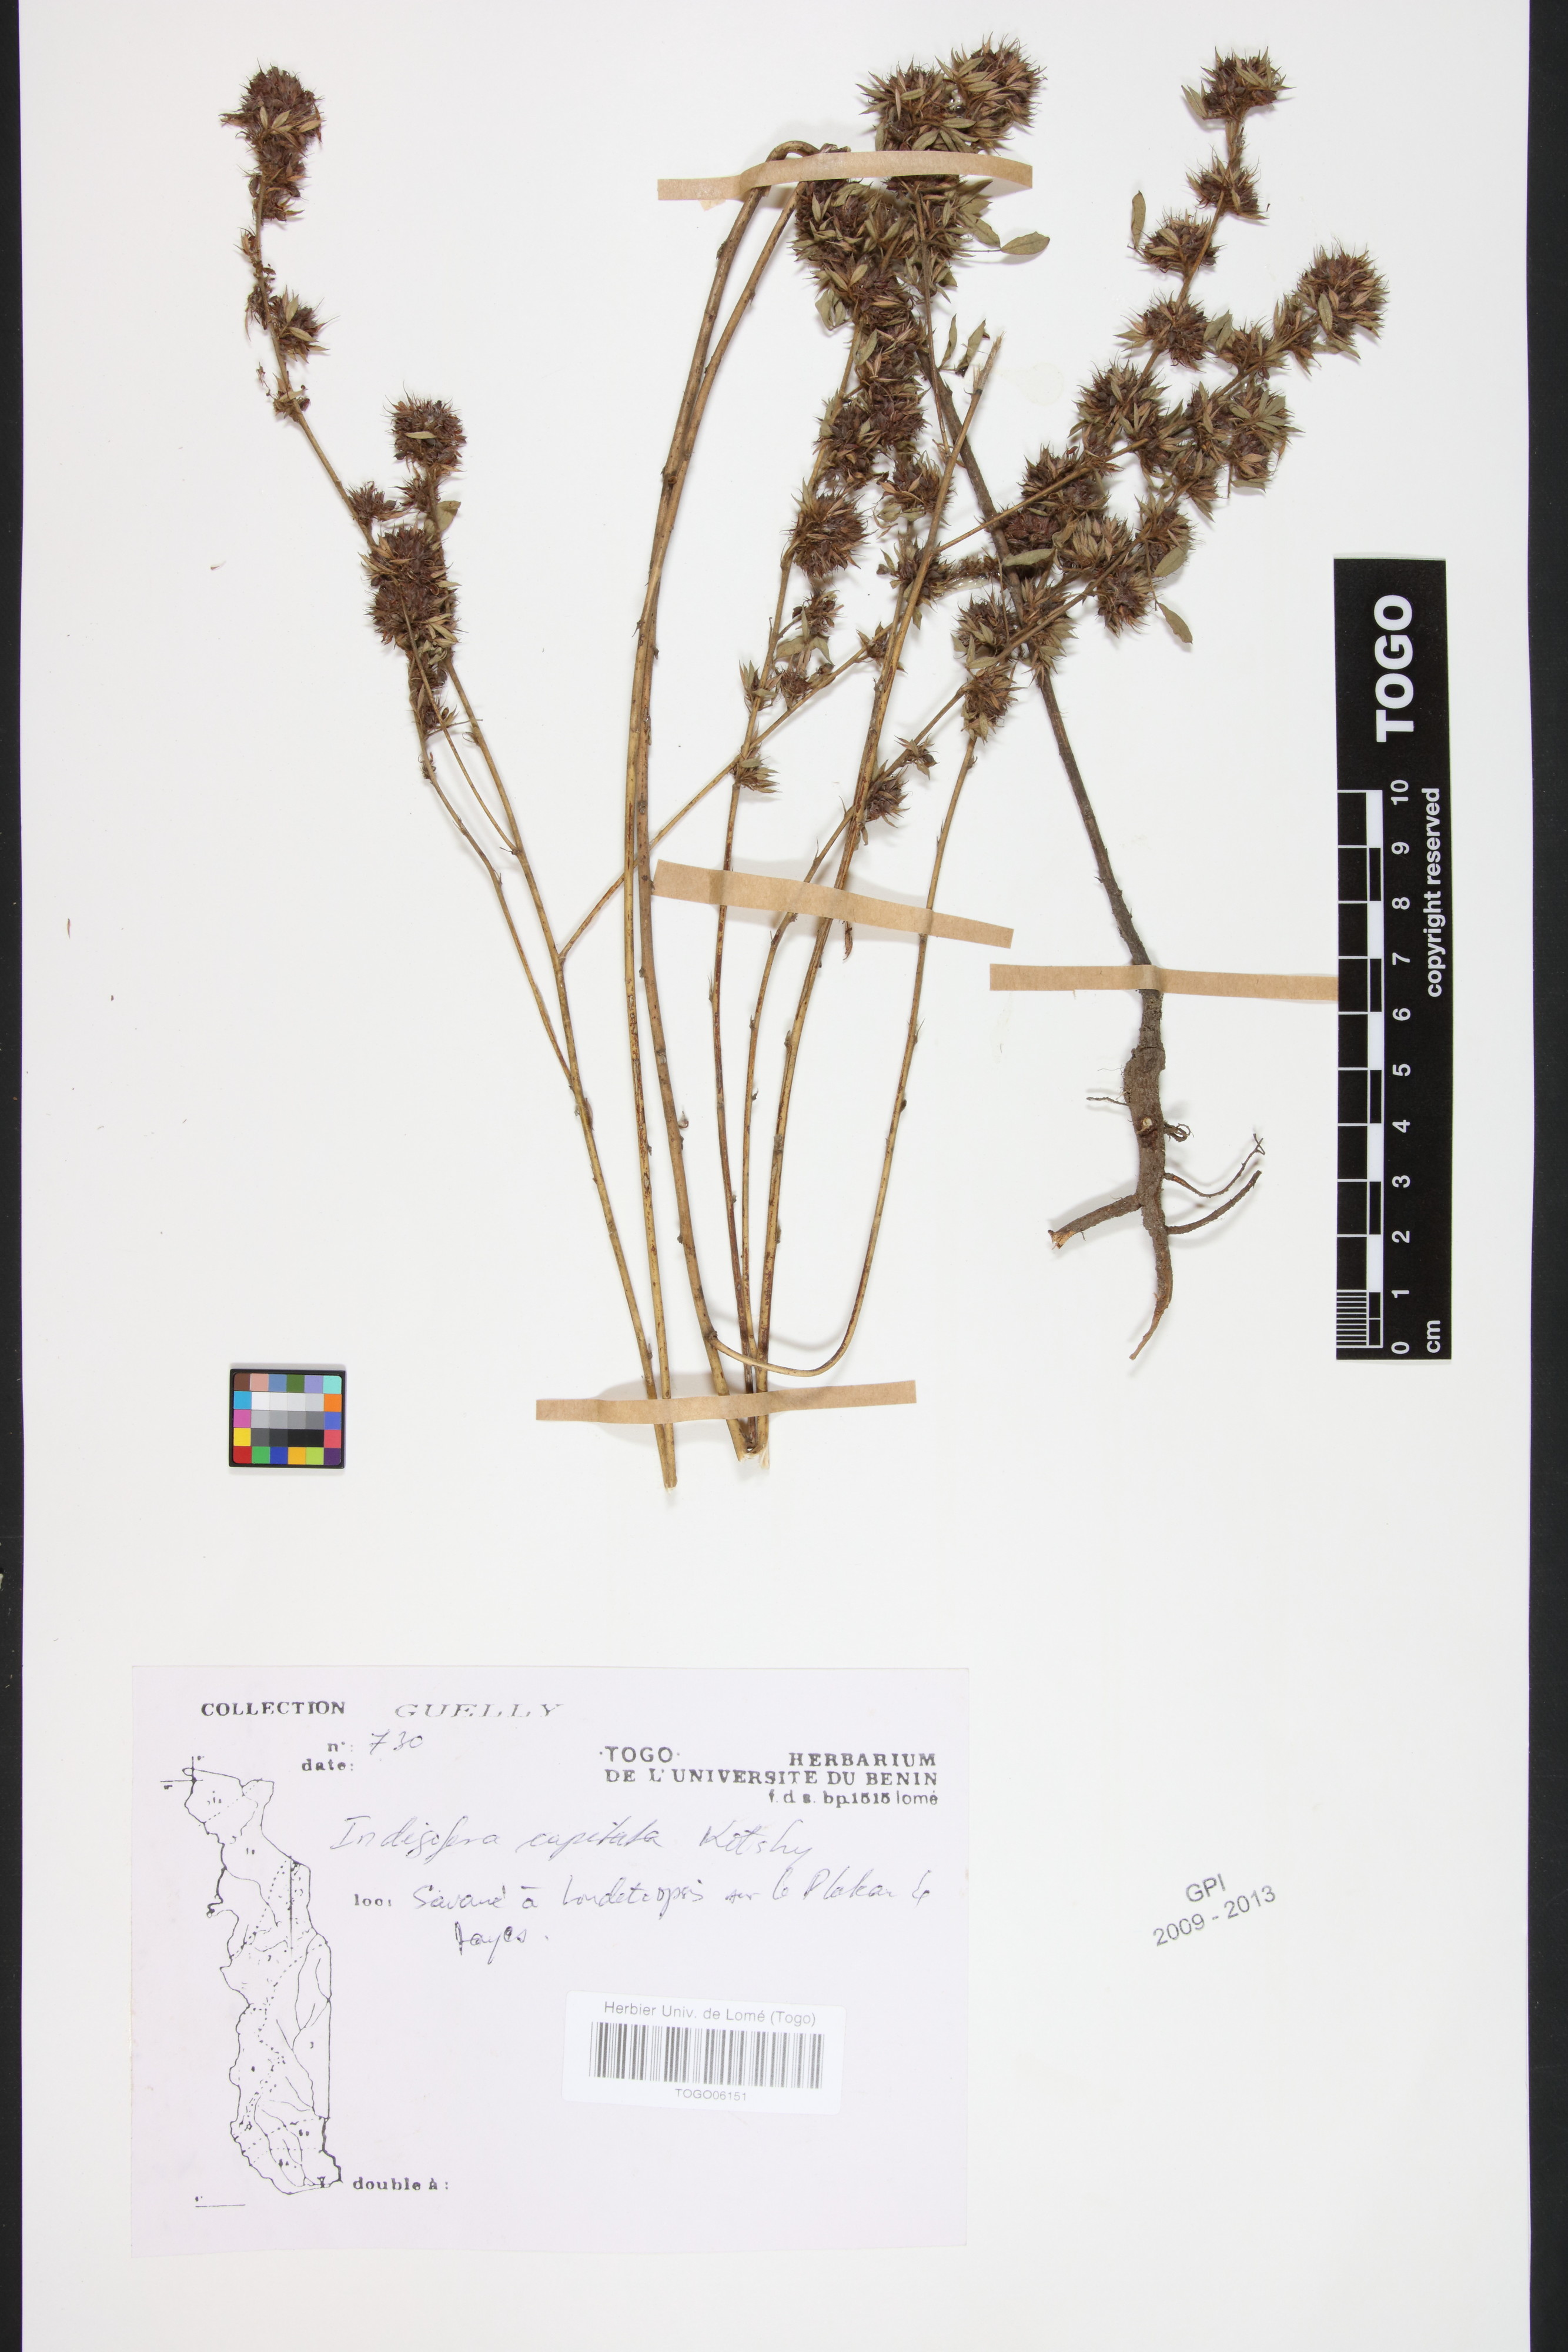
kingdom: Plantae
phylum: Tracheophyta
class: Magnoliopsida
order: Fabales
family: Fabaceae
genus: Indigofera
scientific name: Indigofera capitata
